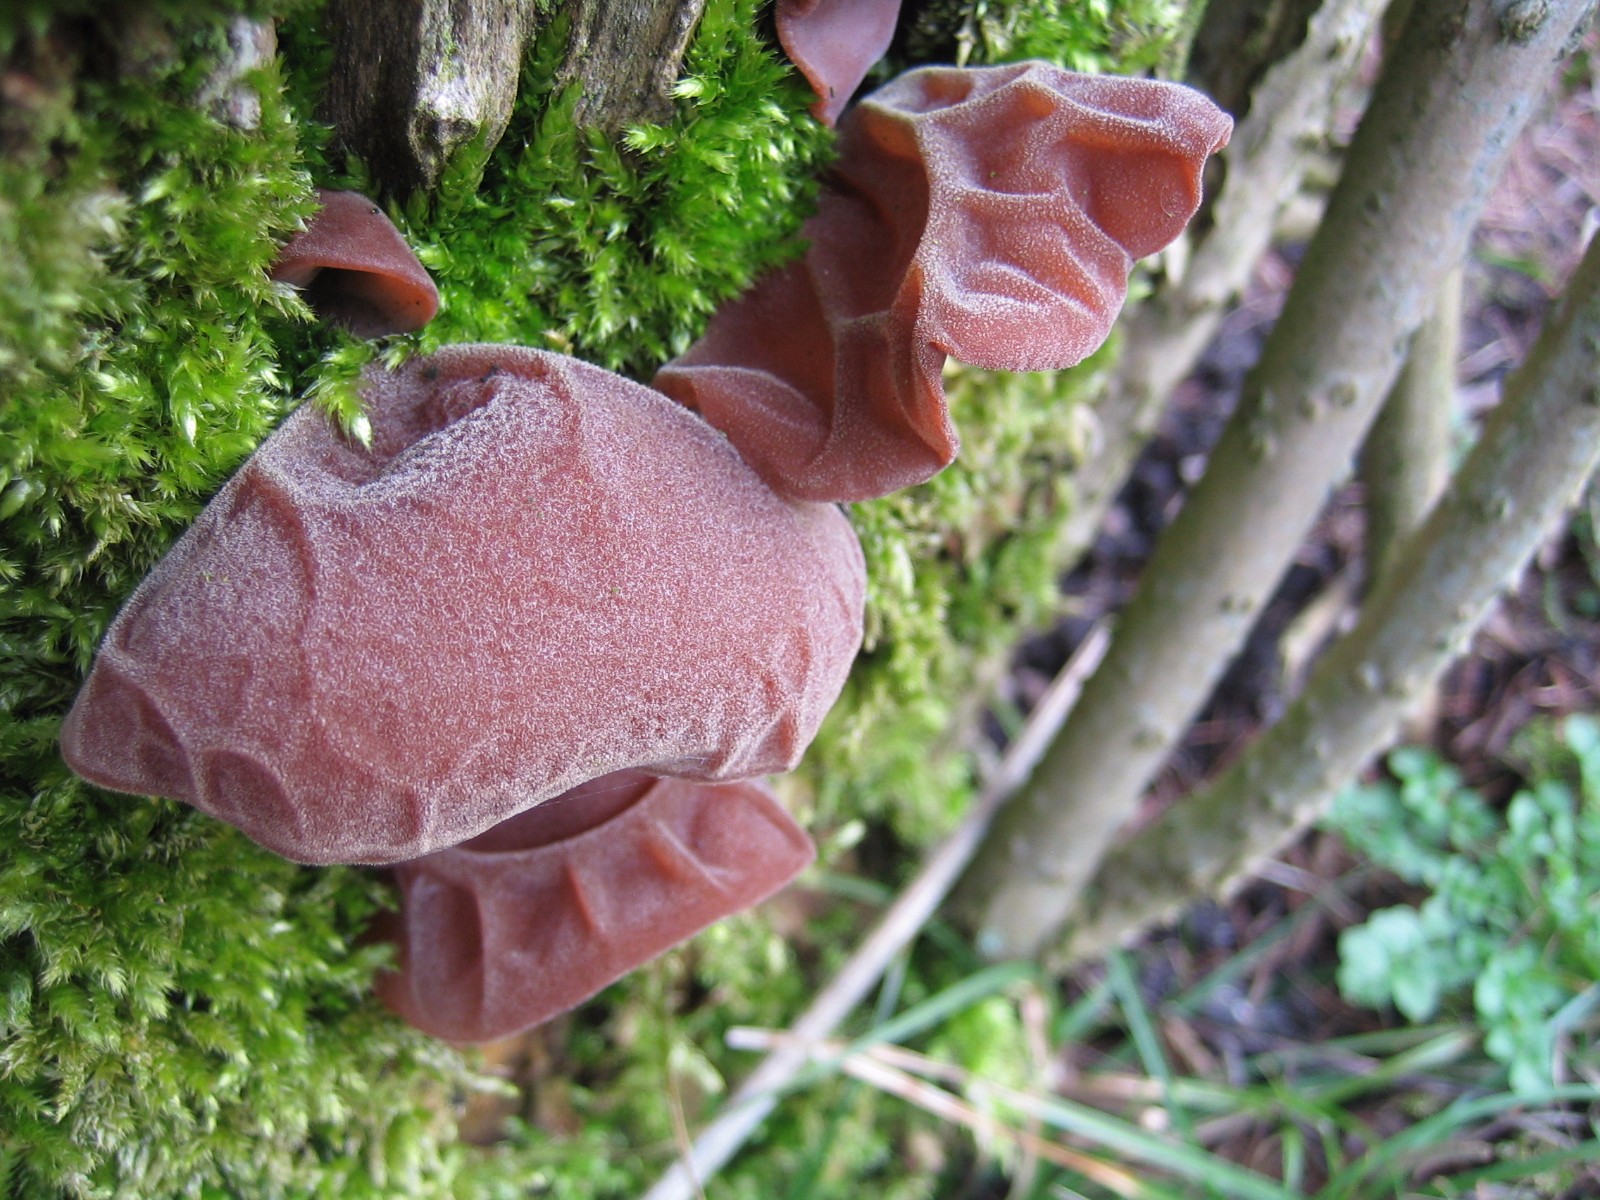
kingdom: Fungi
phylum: Basidiomycota
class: Agaricomycetes
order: Auriculariales
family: Auriculariaceae
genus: Auricularia
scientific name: Auricularia auricula-judae
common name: almindelig judasøre
